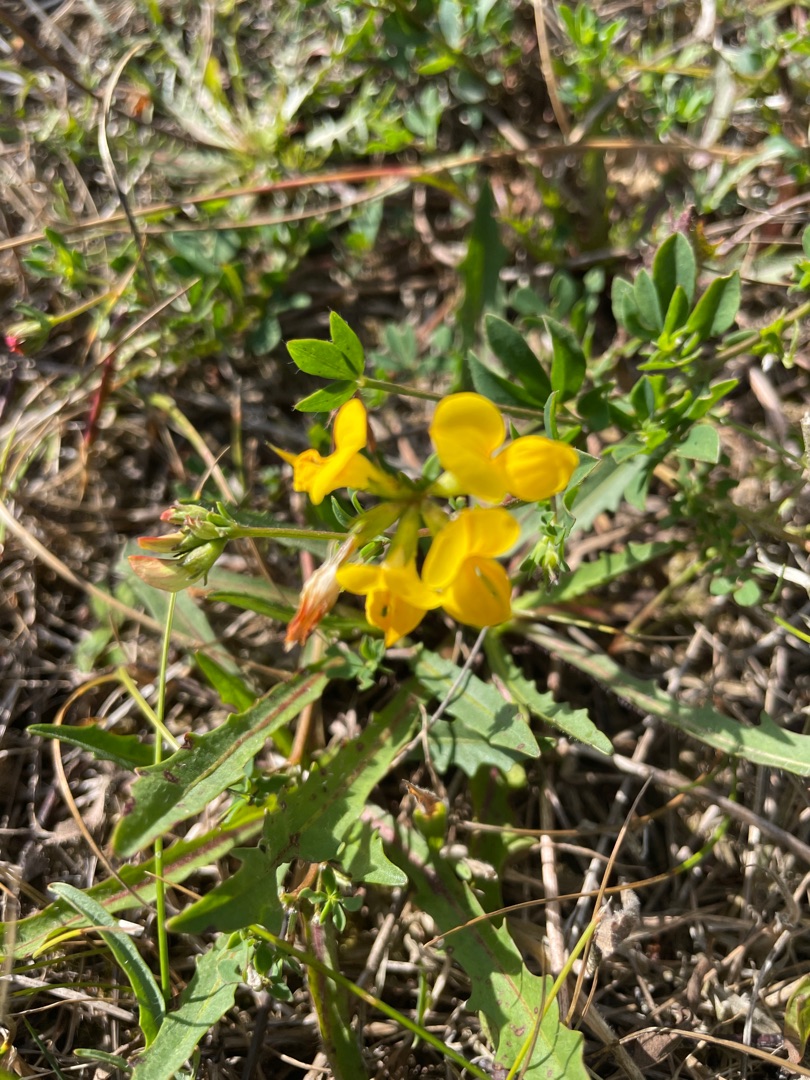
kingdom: Plantae
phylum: Tracheophyta
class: Magnoliopsida
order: Fabales
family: Fabaceae
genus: Lotus
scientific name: Lotus corniculatus
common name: Almindelig kællingetand
